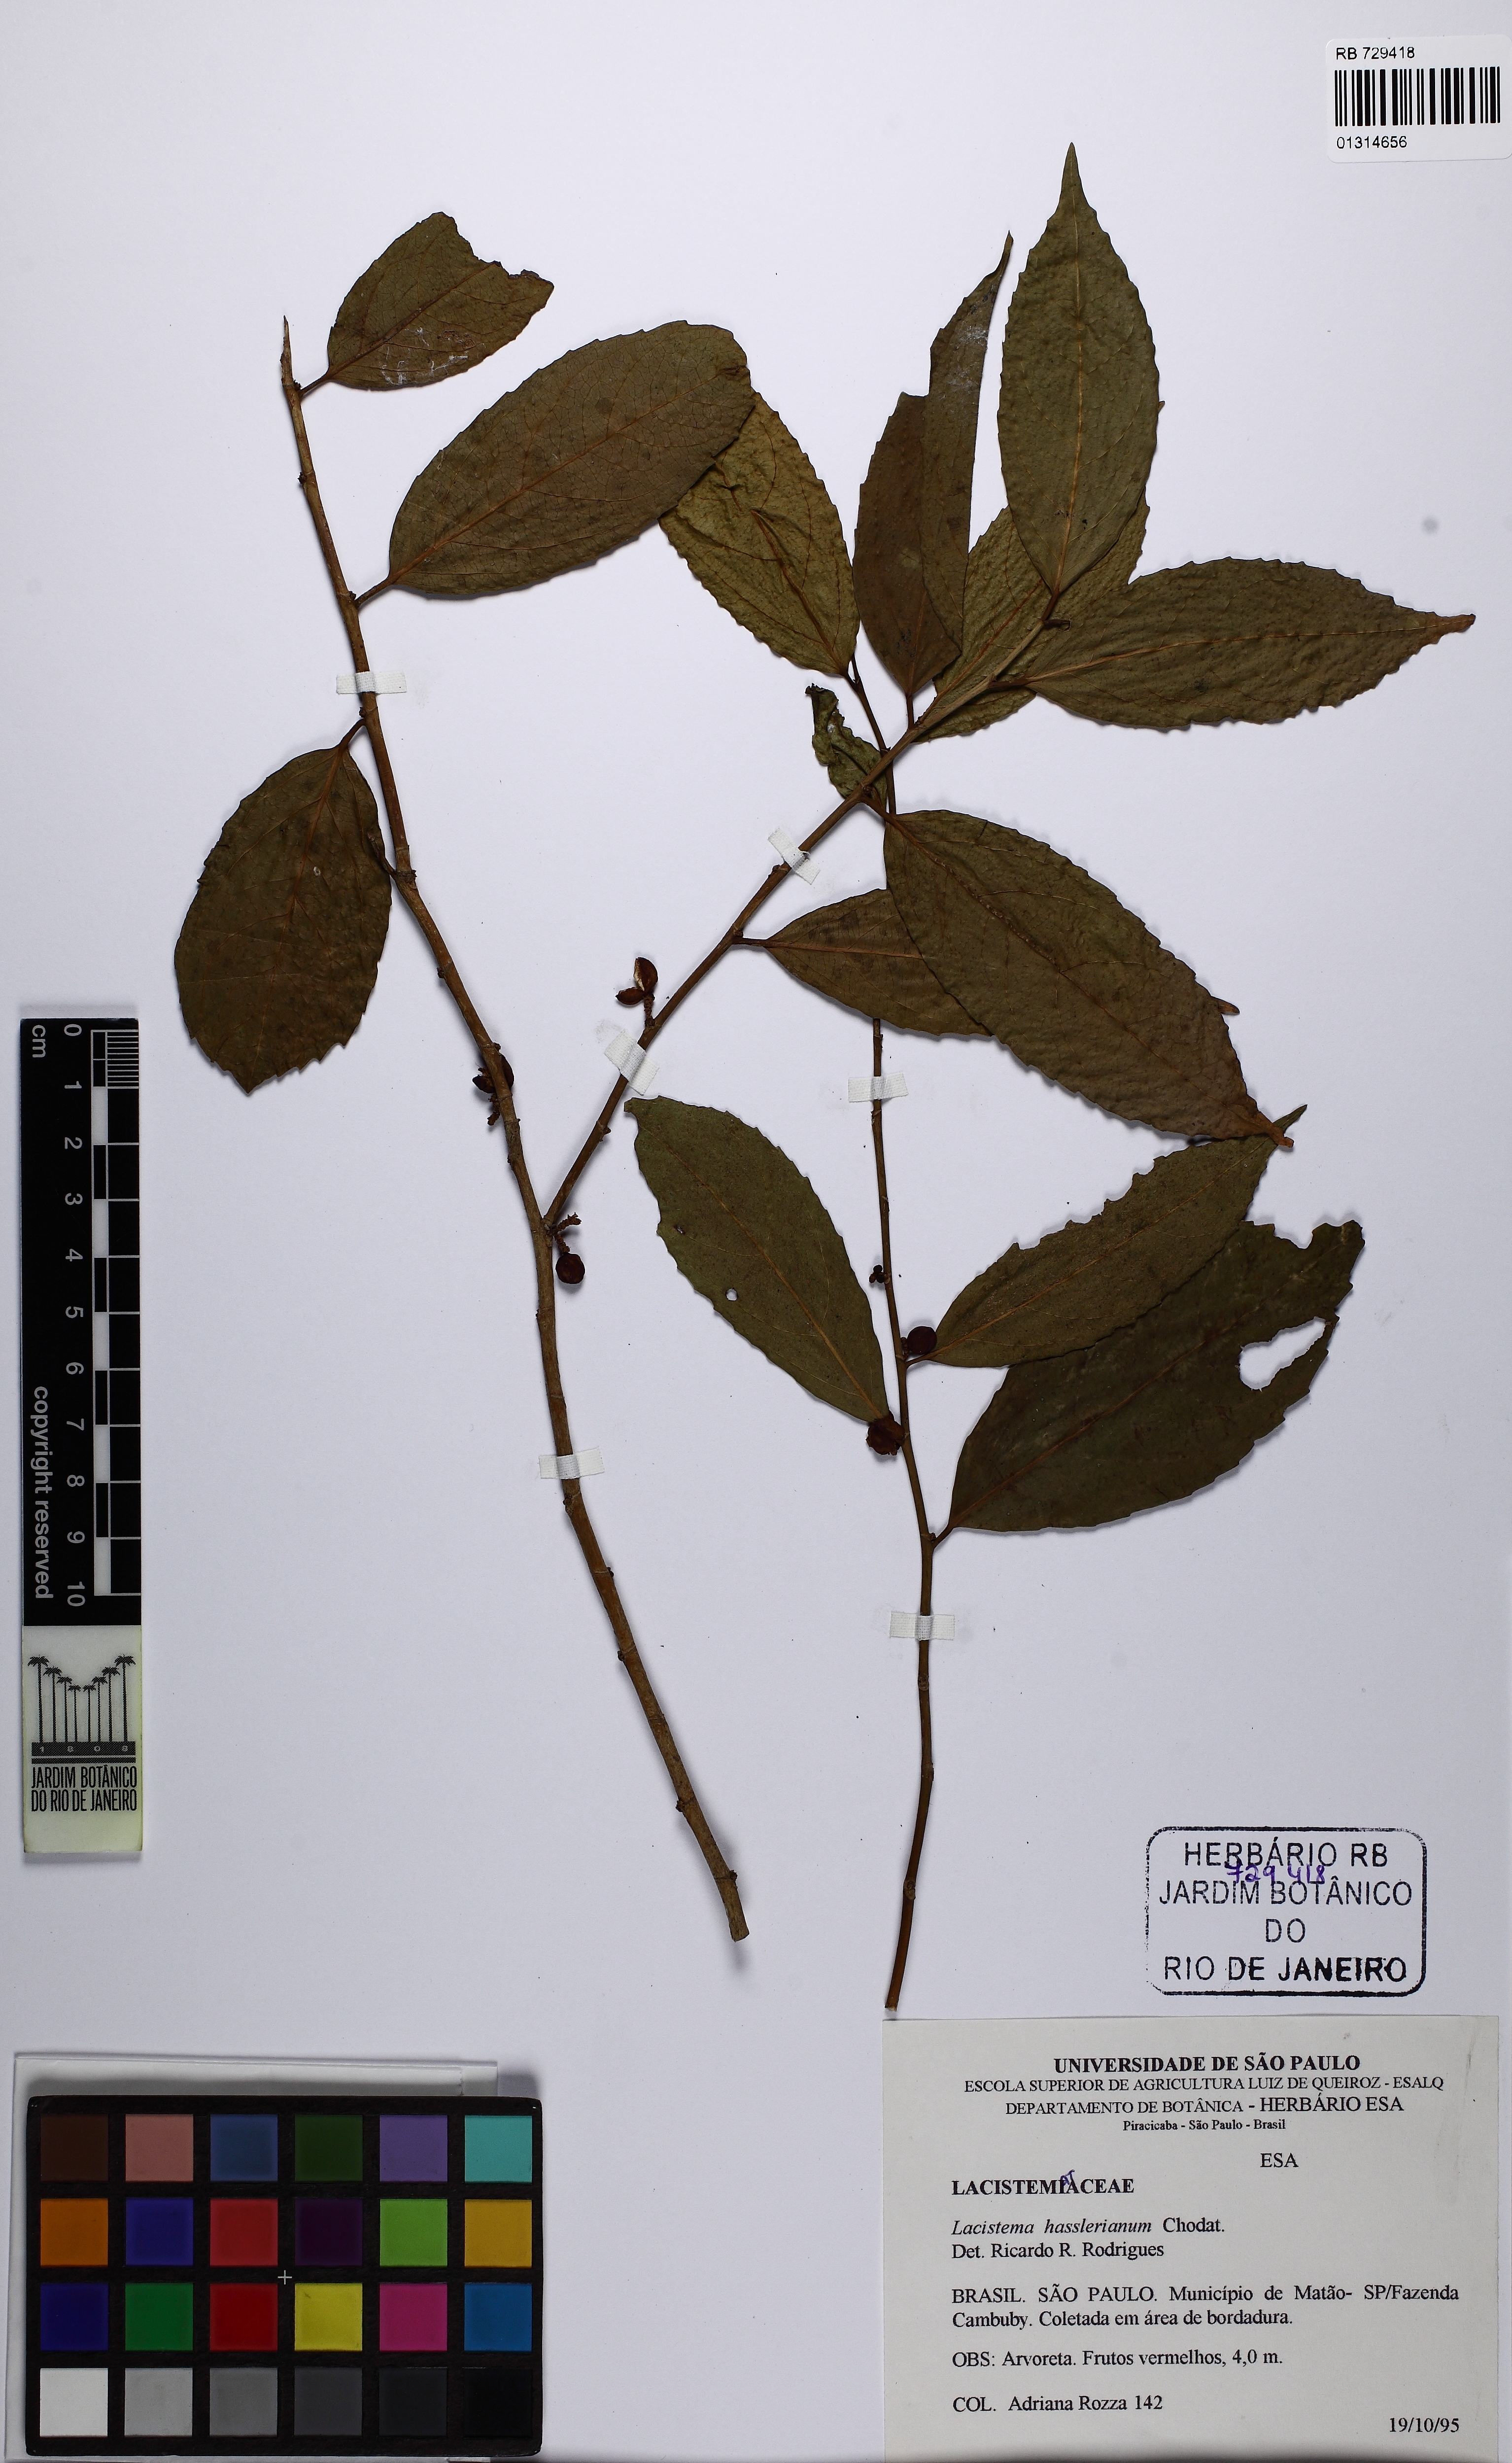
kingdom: Plantae
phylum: Tracheophyta
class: Magnoliopsida
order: Malpighiales
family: Lacistemataceae
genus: Lacistema
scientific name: Lacistema hasslerianum
